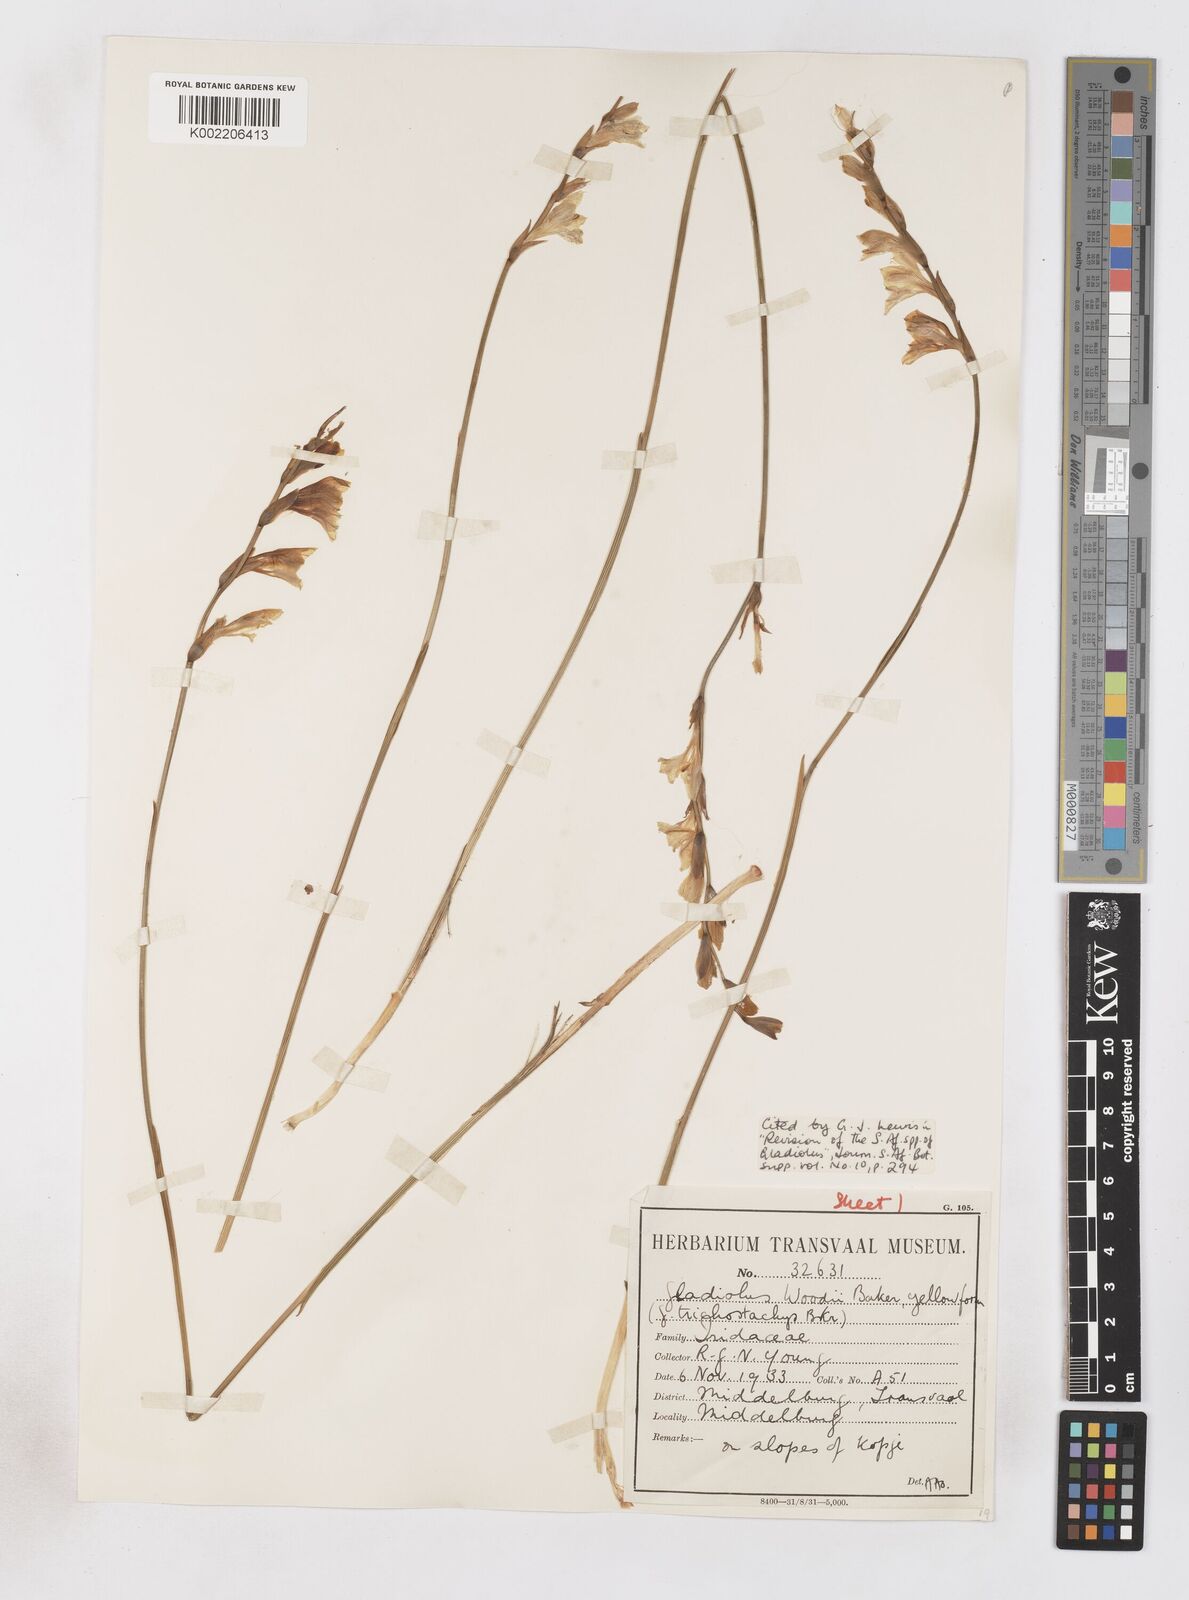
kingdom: Plantae
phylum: Tracheophyta
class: Liliopsida
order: Asparagales
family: Iridaceae
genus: Gladiolus
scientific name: Gladiolus woodii
